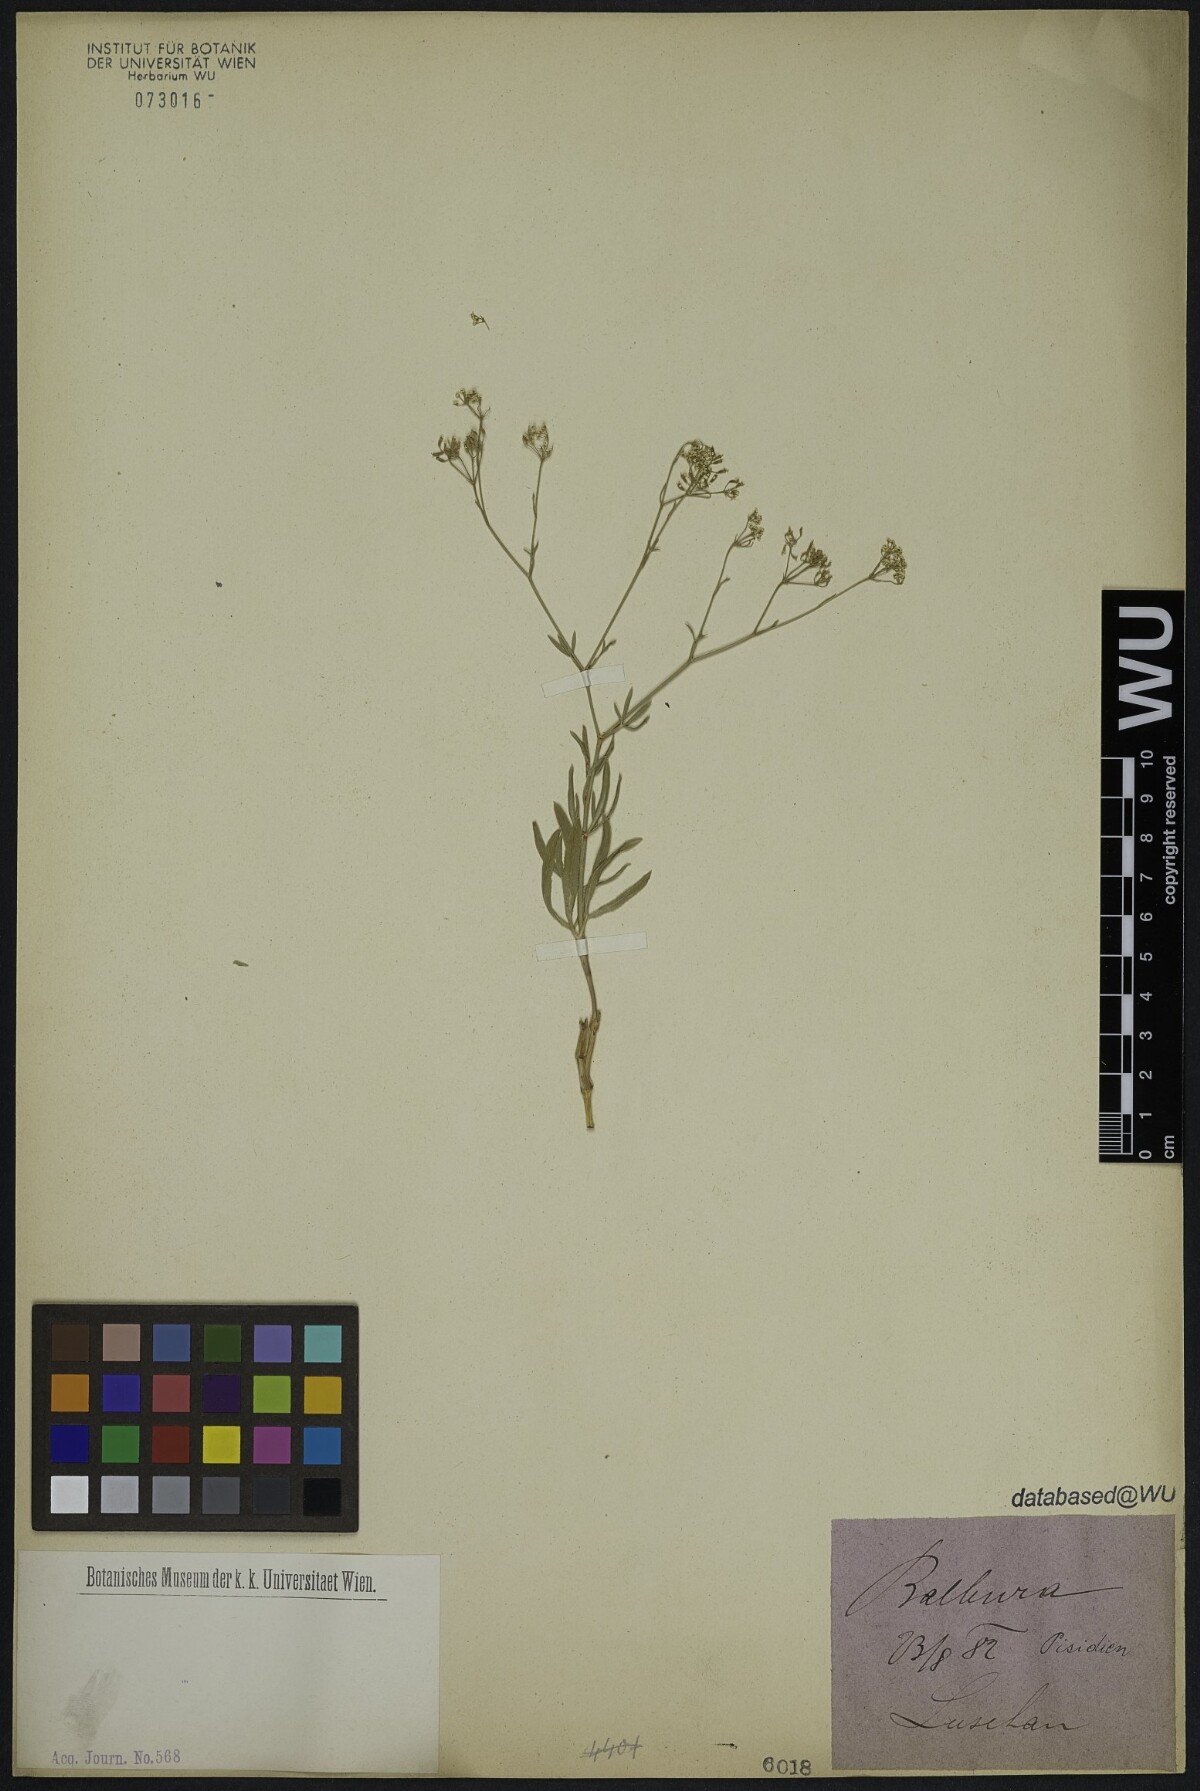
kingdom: Plantae
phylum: Tracheophyta
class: Magnoliopsida
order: Apiales
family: Apiaceae
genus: Falcaria
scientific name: Falcaria vulgaris
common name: Longleaf
